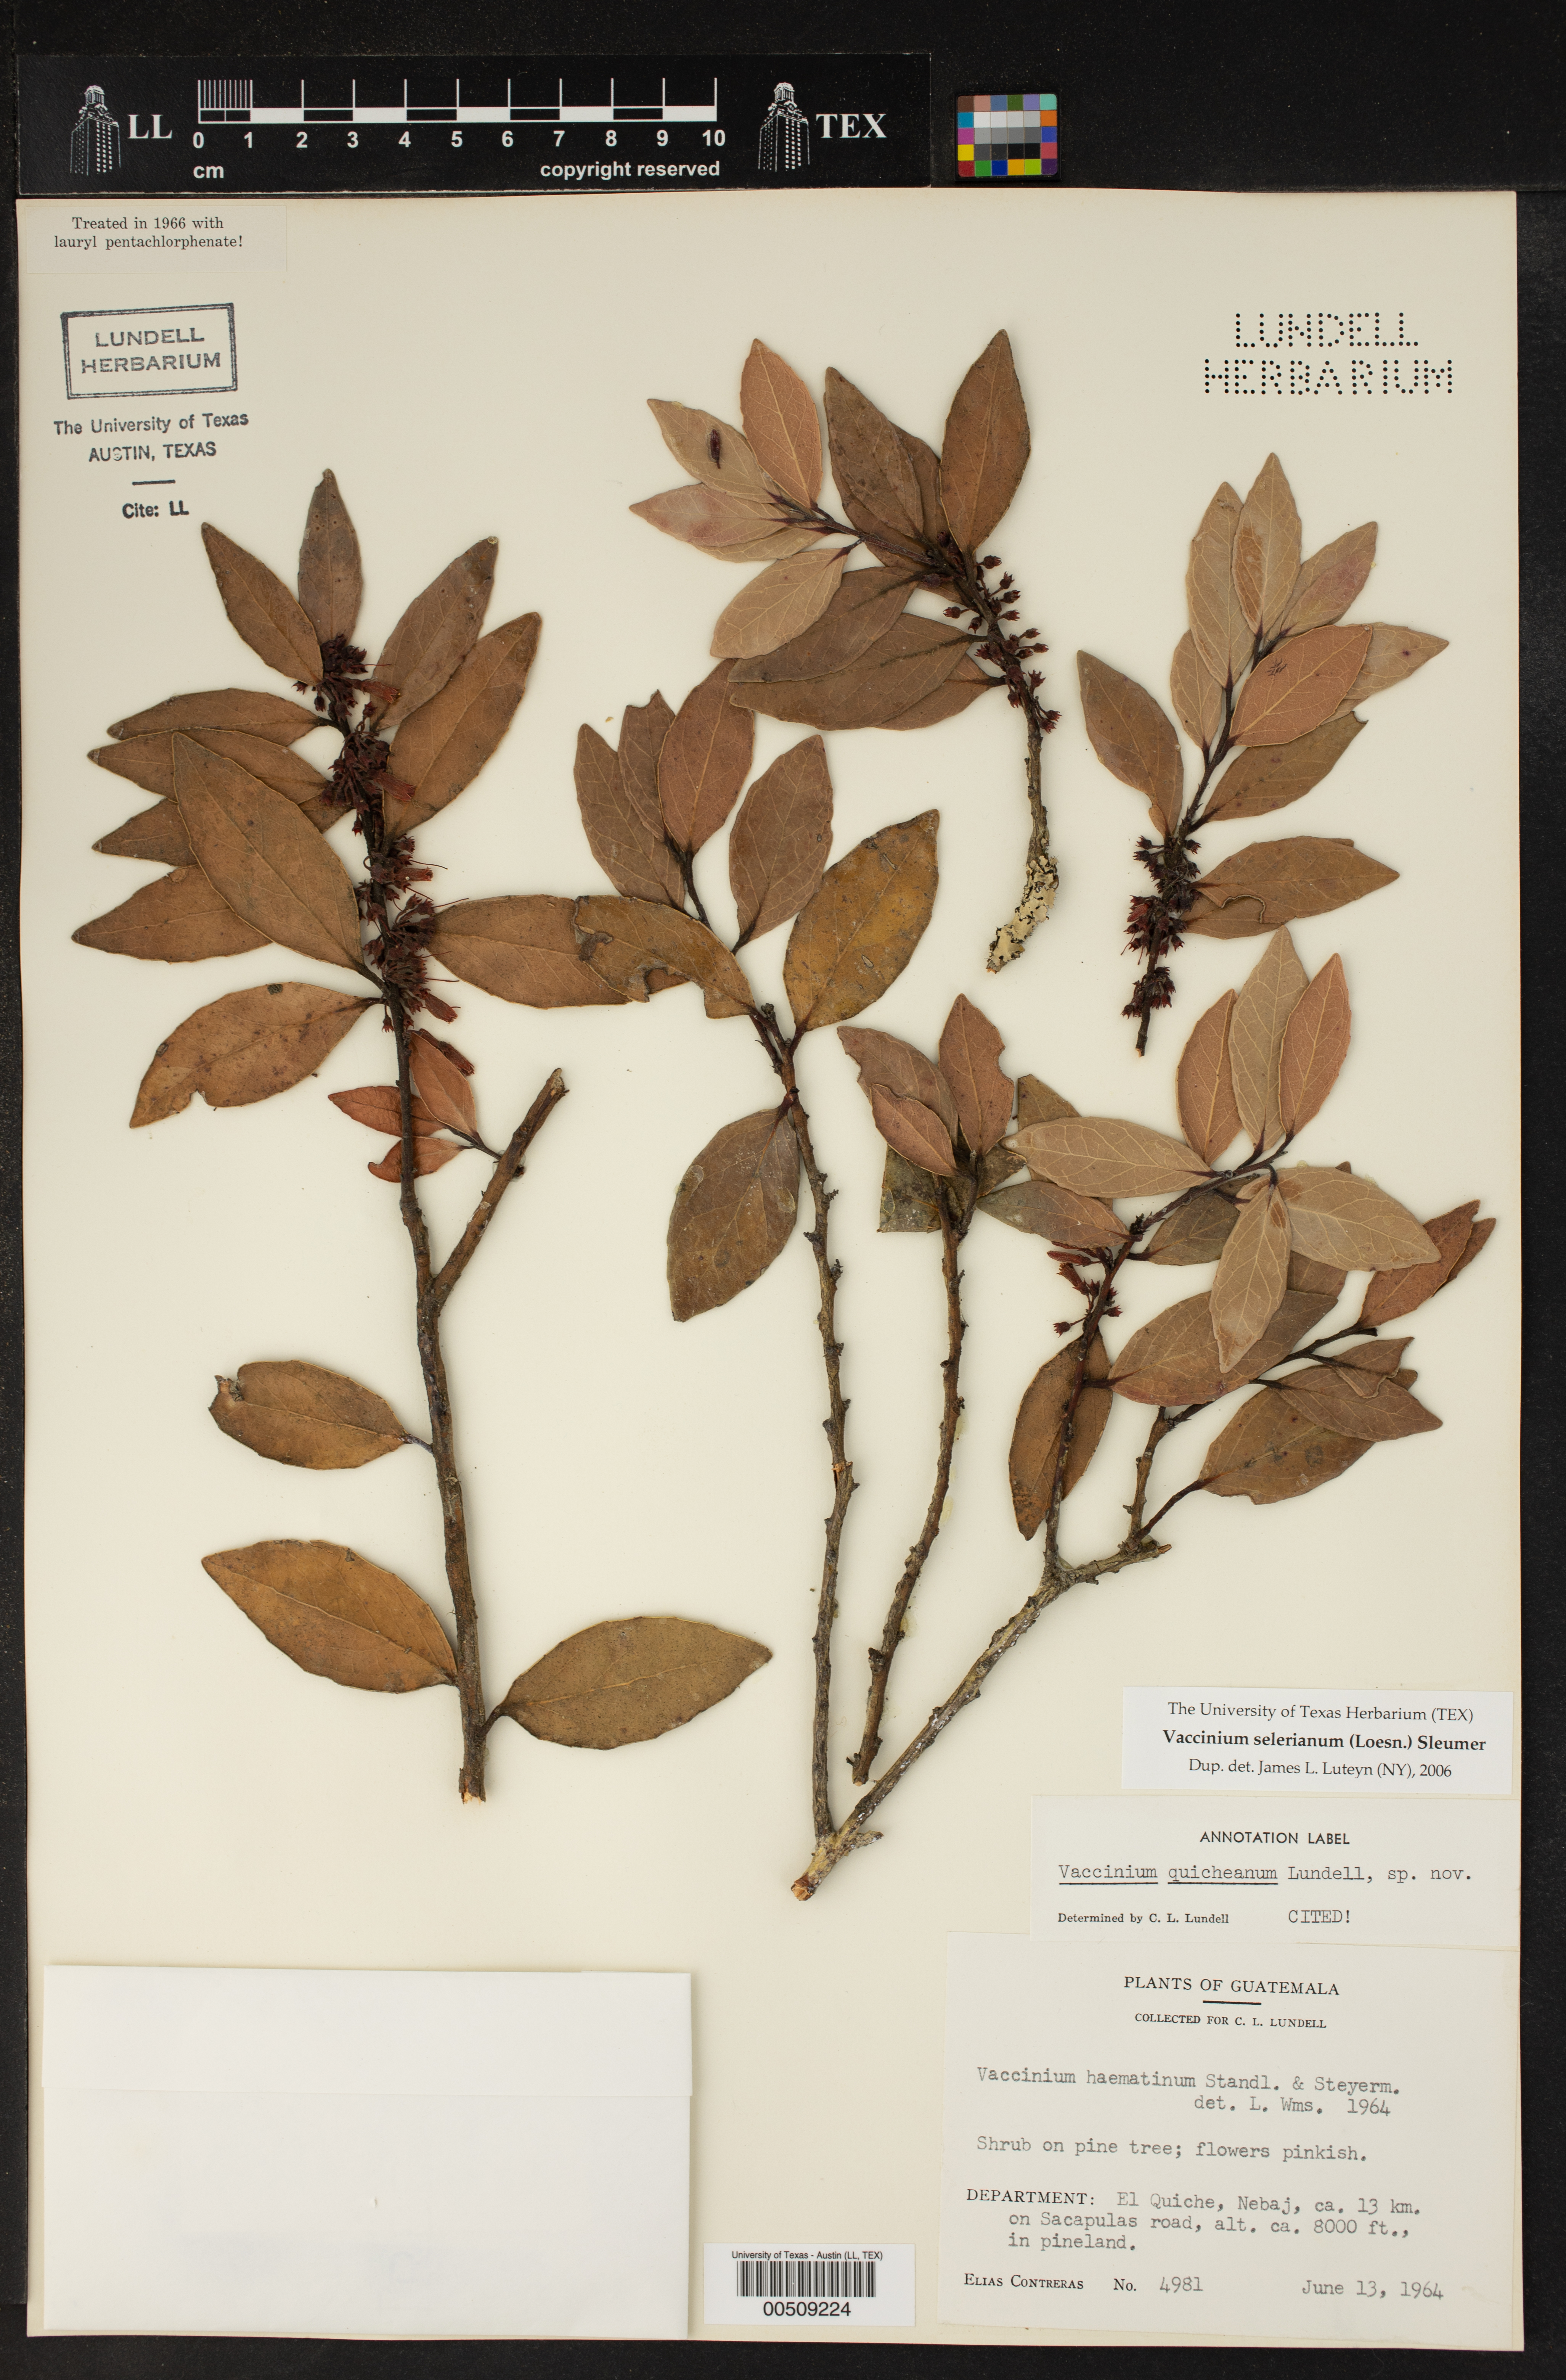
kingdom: Plantae
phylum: Tracheophyta
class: Magnoliopsida
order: Ericales
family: Ericaceae
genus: Vaccinium
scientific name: Vaccinium selerianum
